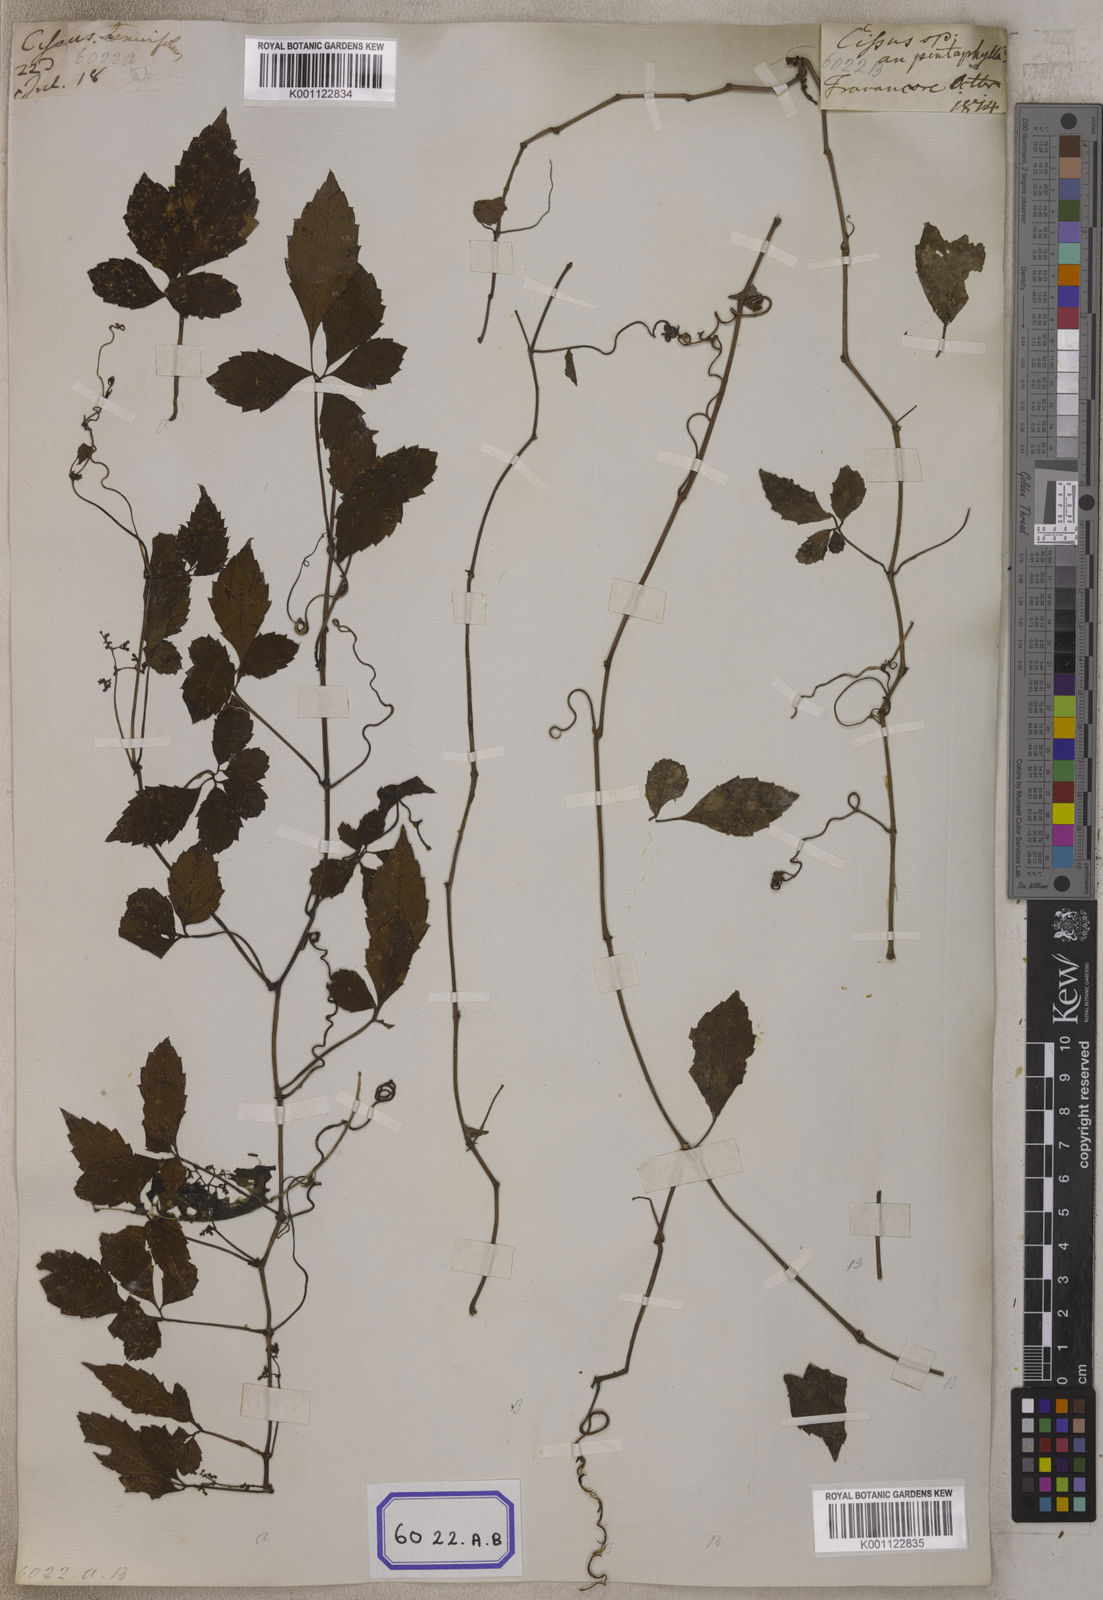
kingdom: Plantae
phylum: Tracheophyta
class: Magnoliopsida
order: Vitales
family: Vitaceae
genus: Causonis
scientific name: Causonis japonica
